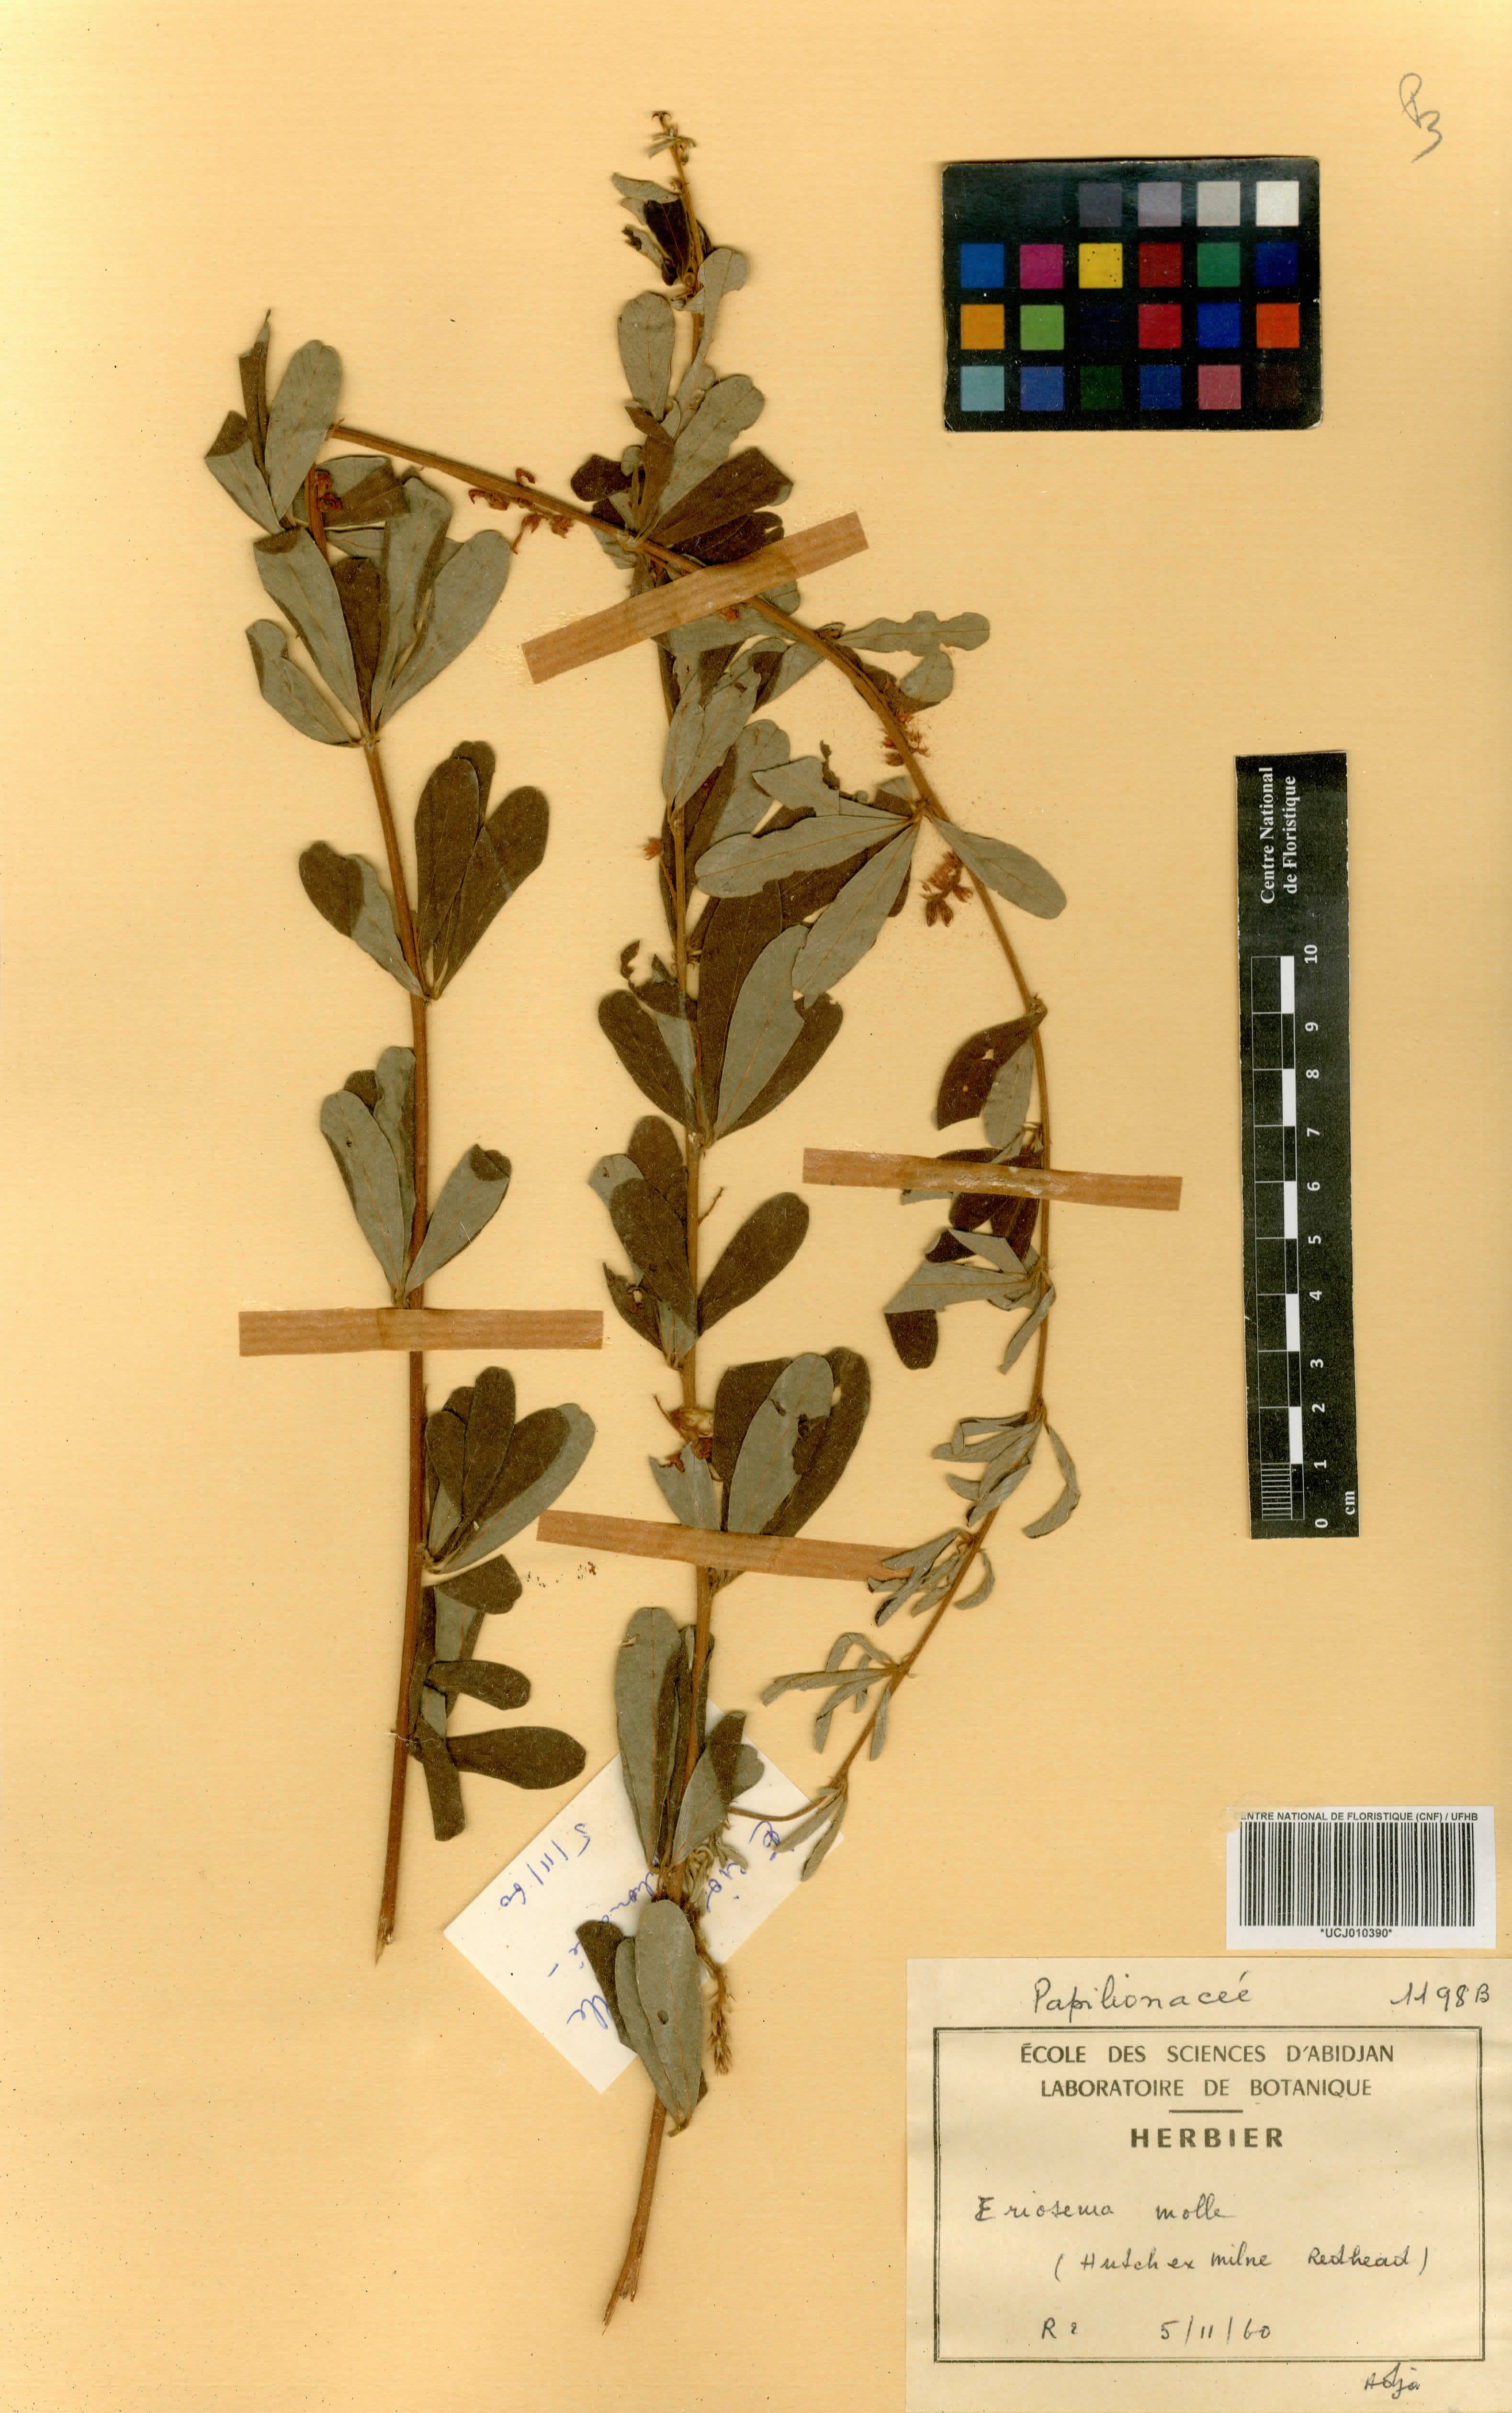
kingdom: Plantae
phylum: Tracheophyta
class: Magnoliopsida
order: Fabales
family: Fabaceae
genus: Eriosema
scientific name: Eriosema molle
